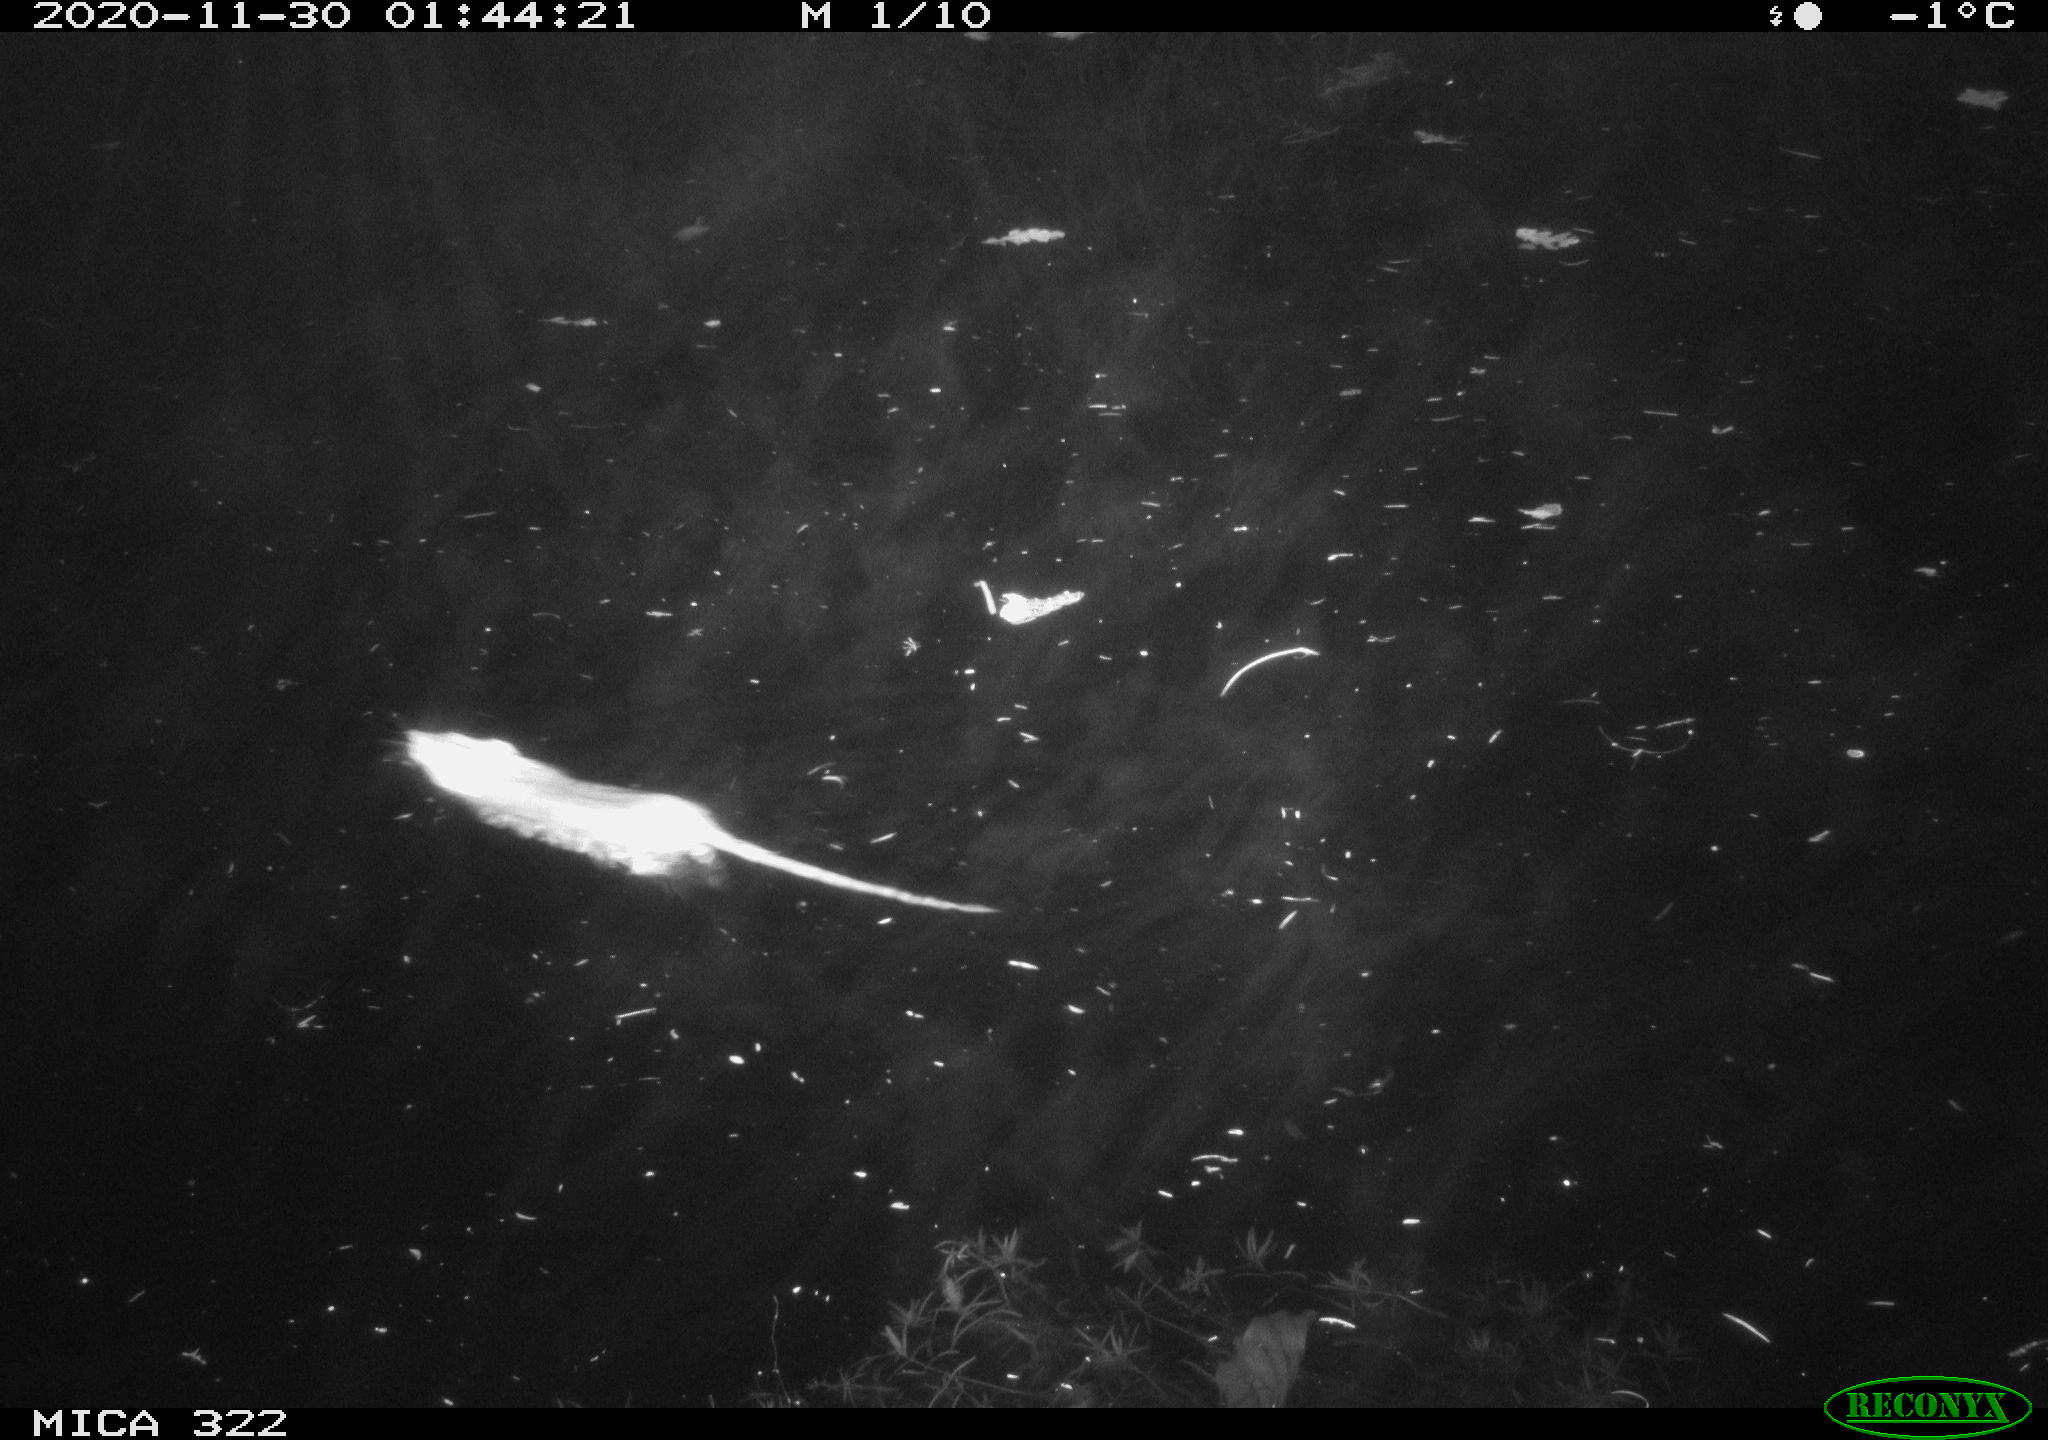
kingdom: Animalia
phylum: Chordata
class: Mammalia
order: Rodentia
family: Muridae
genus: Rattus
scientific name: Rattus norvegicus
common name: Brown rat
